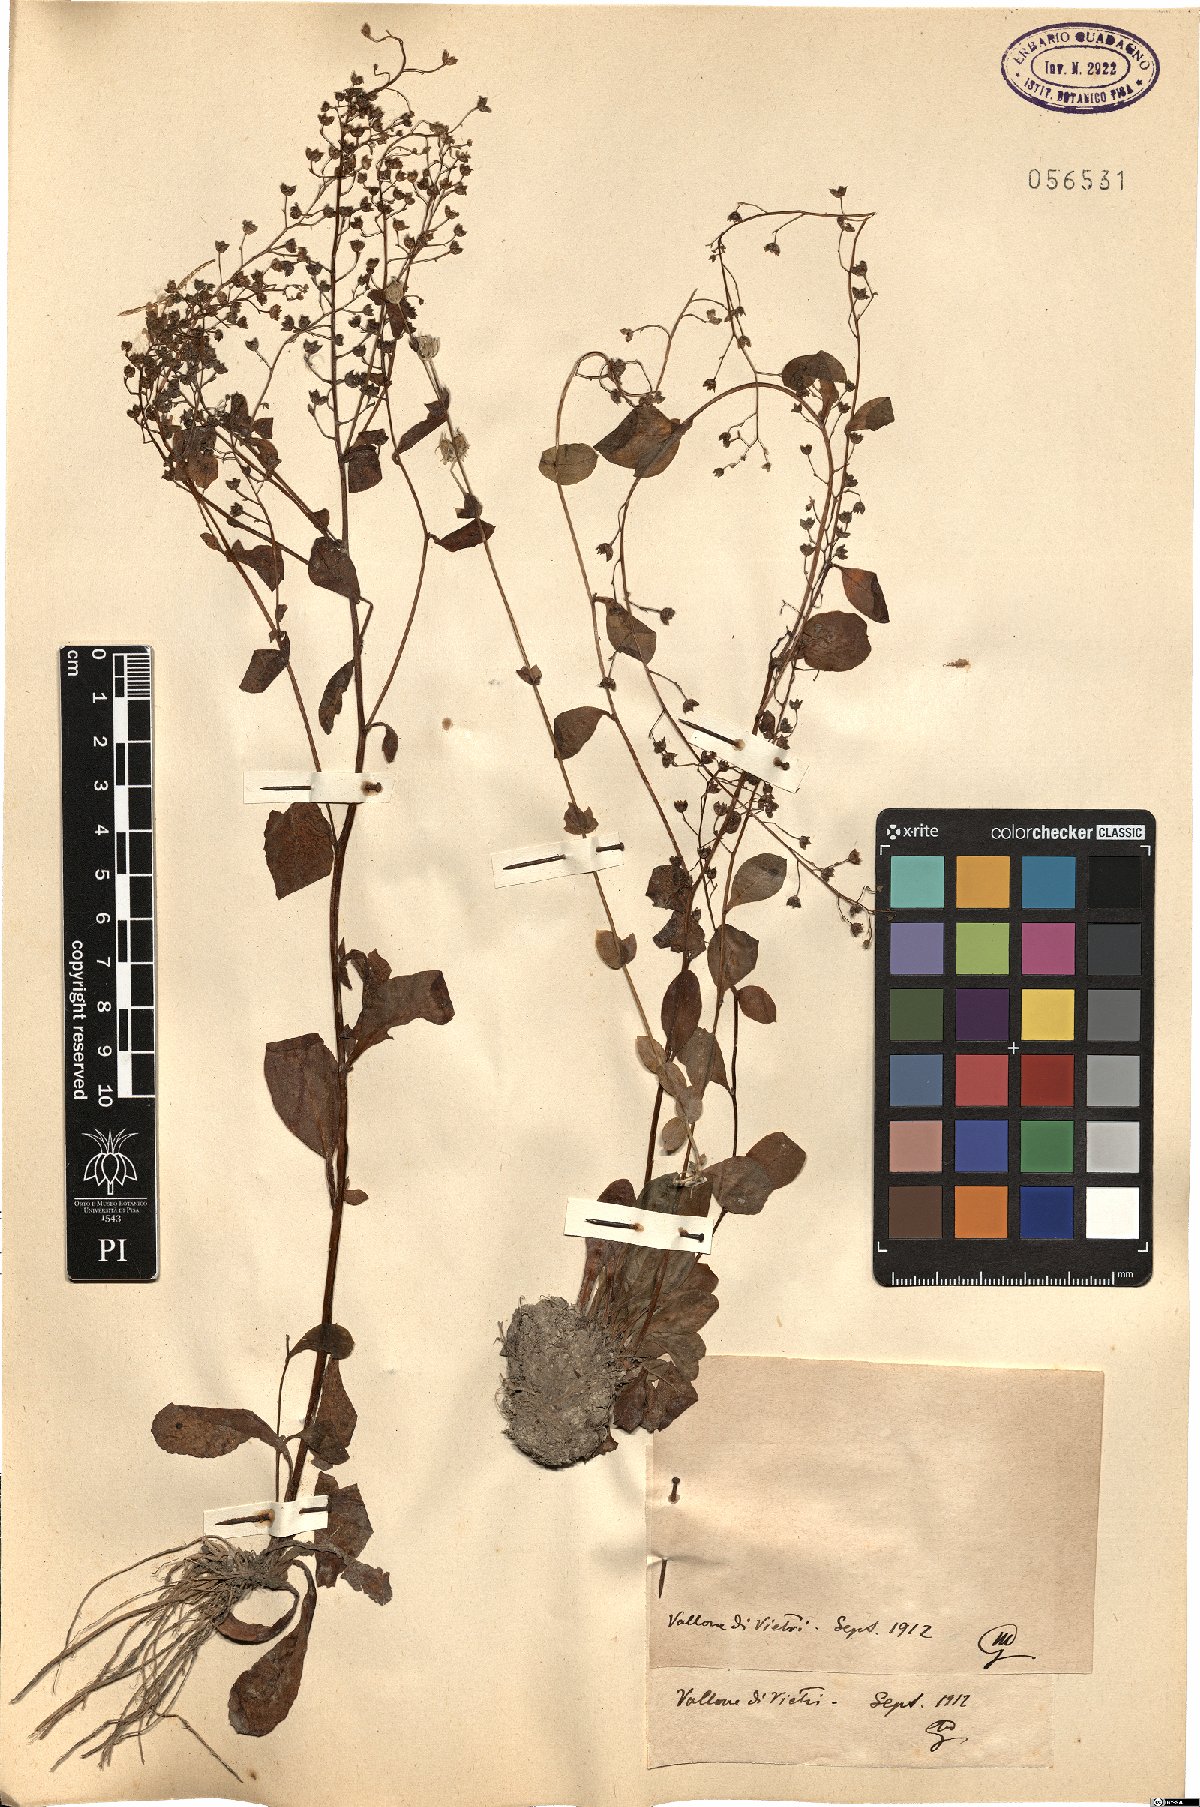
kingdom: Plantae
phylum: Tracheophyta
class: Magnoliopsida
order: Ericales
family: Primulaceae
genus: Samolus
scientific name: Samolus
